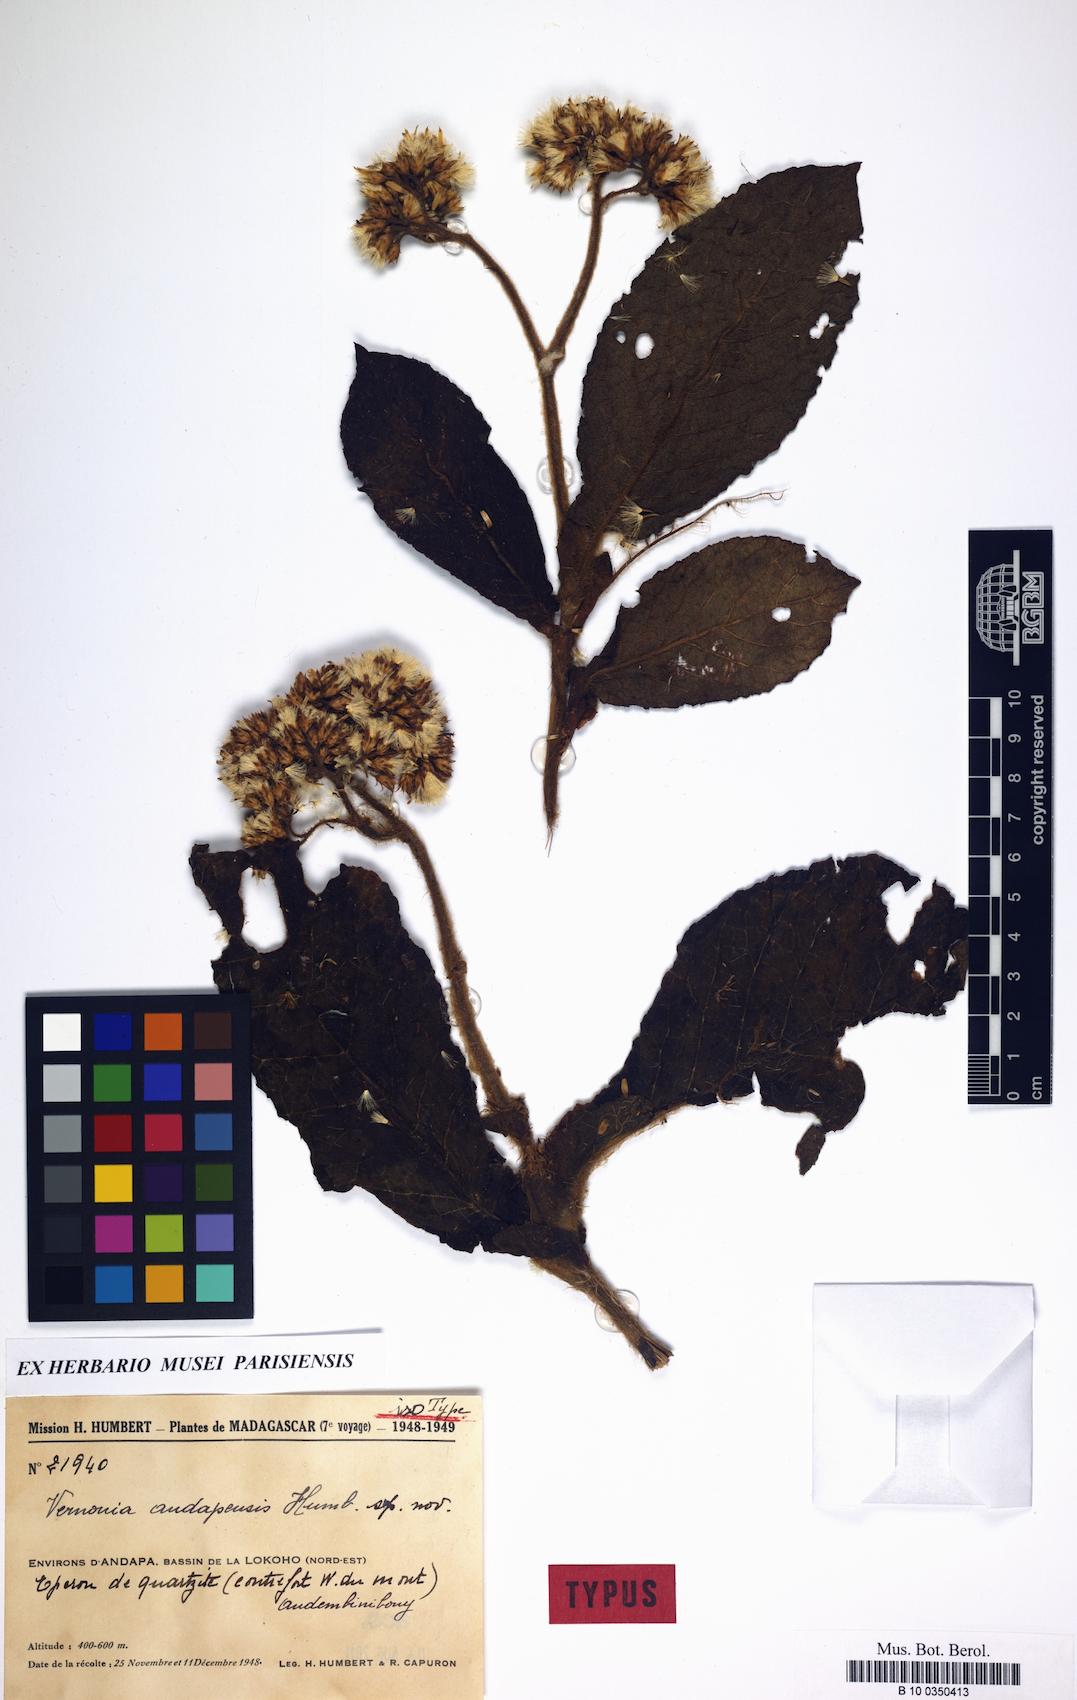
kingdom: Plantae
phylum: Tracheophyta
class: Magnoliopsida
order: Asterales
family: Asteraceae
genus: Vernonia
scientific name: Vernonia andapensis
